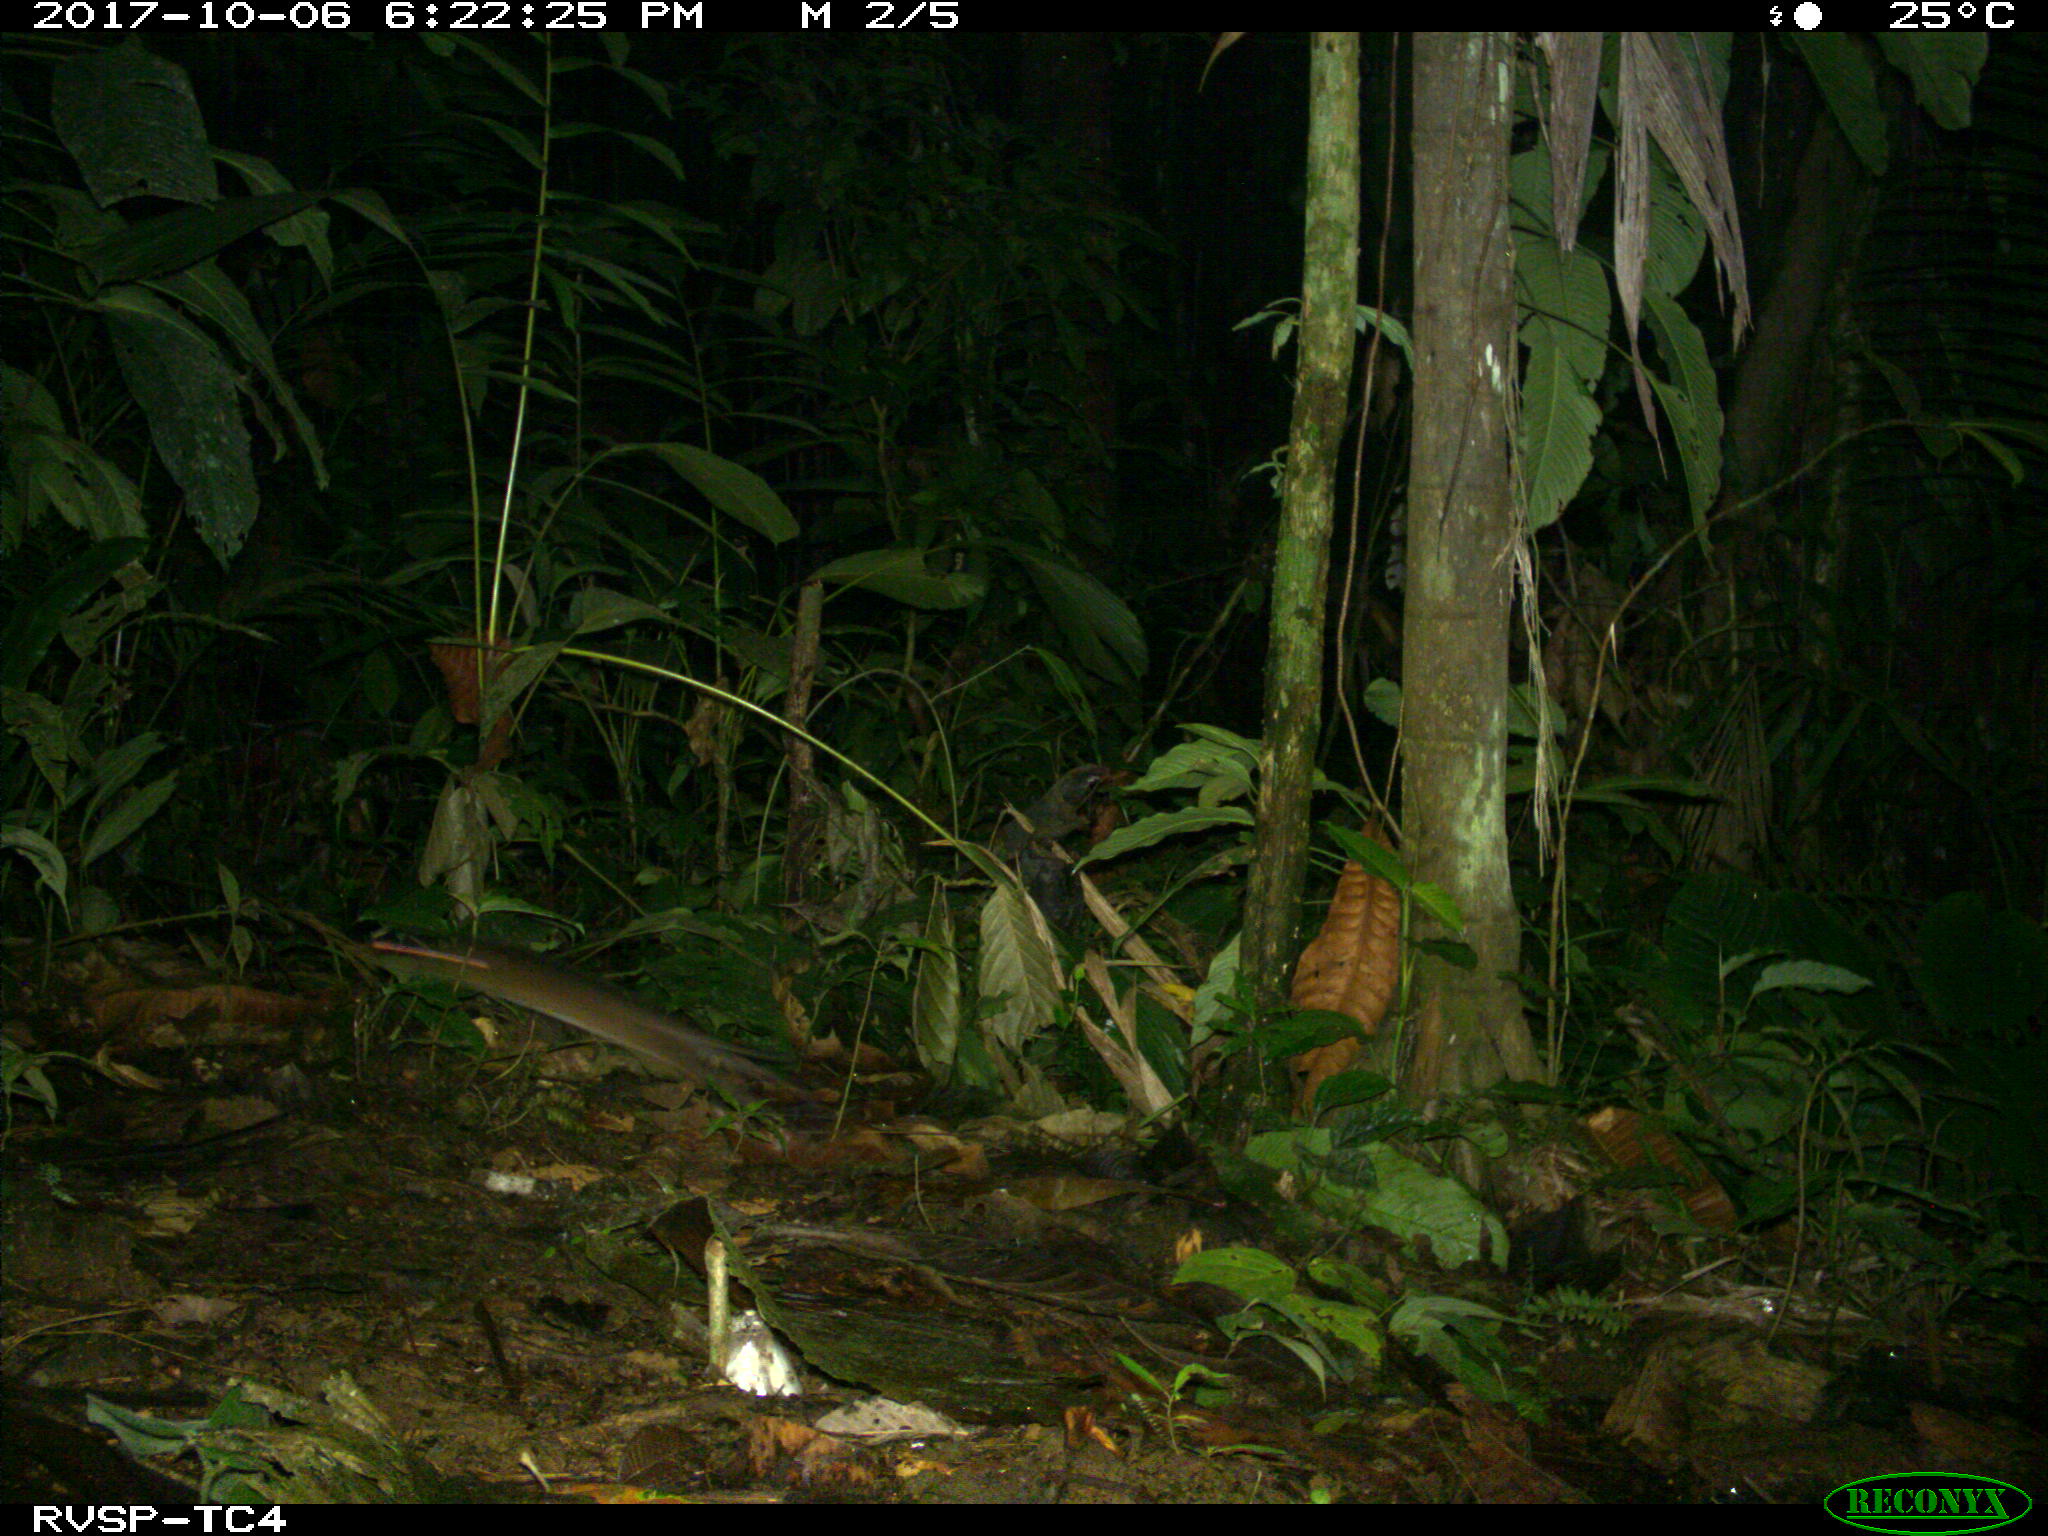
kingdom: Animalia
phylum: Chordata
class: Mammalia
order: Rodentia
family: Echimyidae
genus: Proechimys
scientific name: Proechimys
